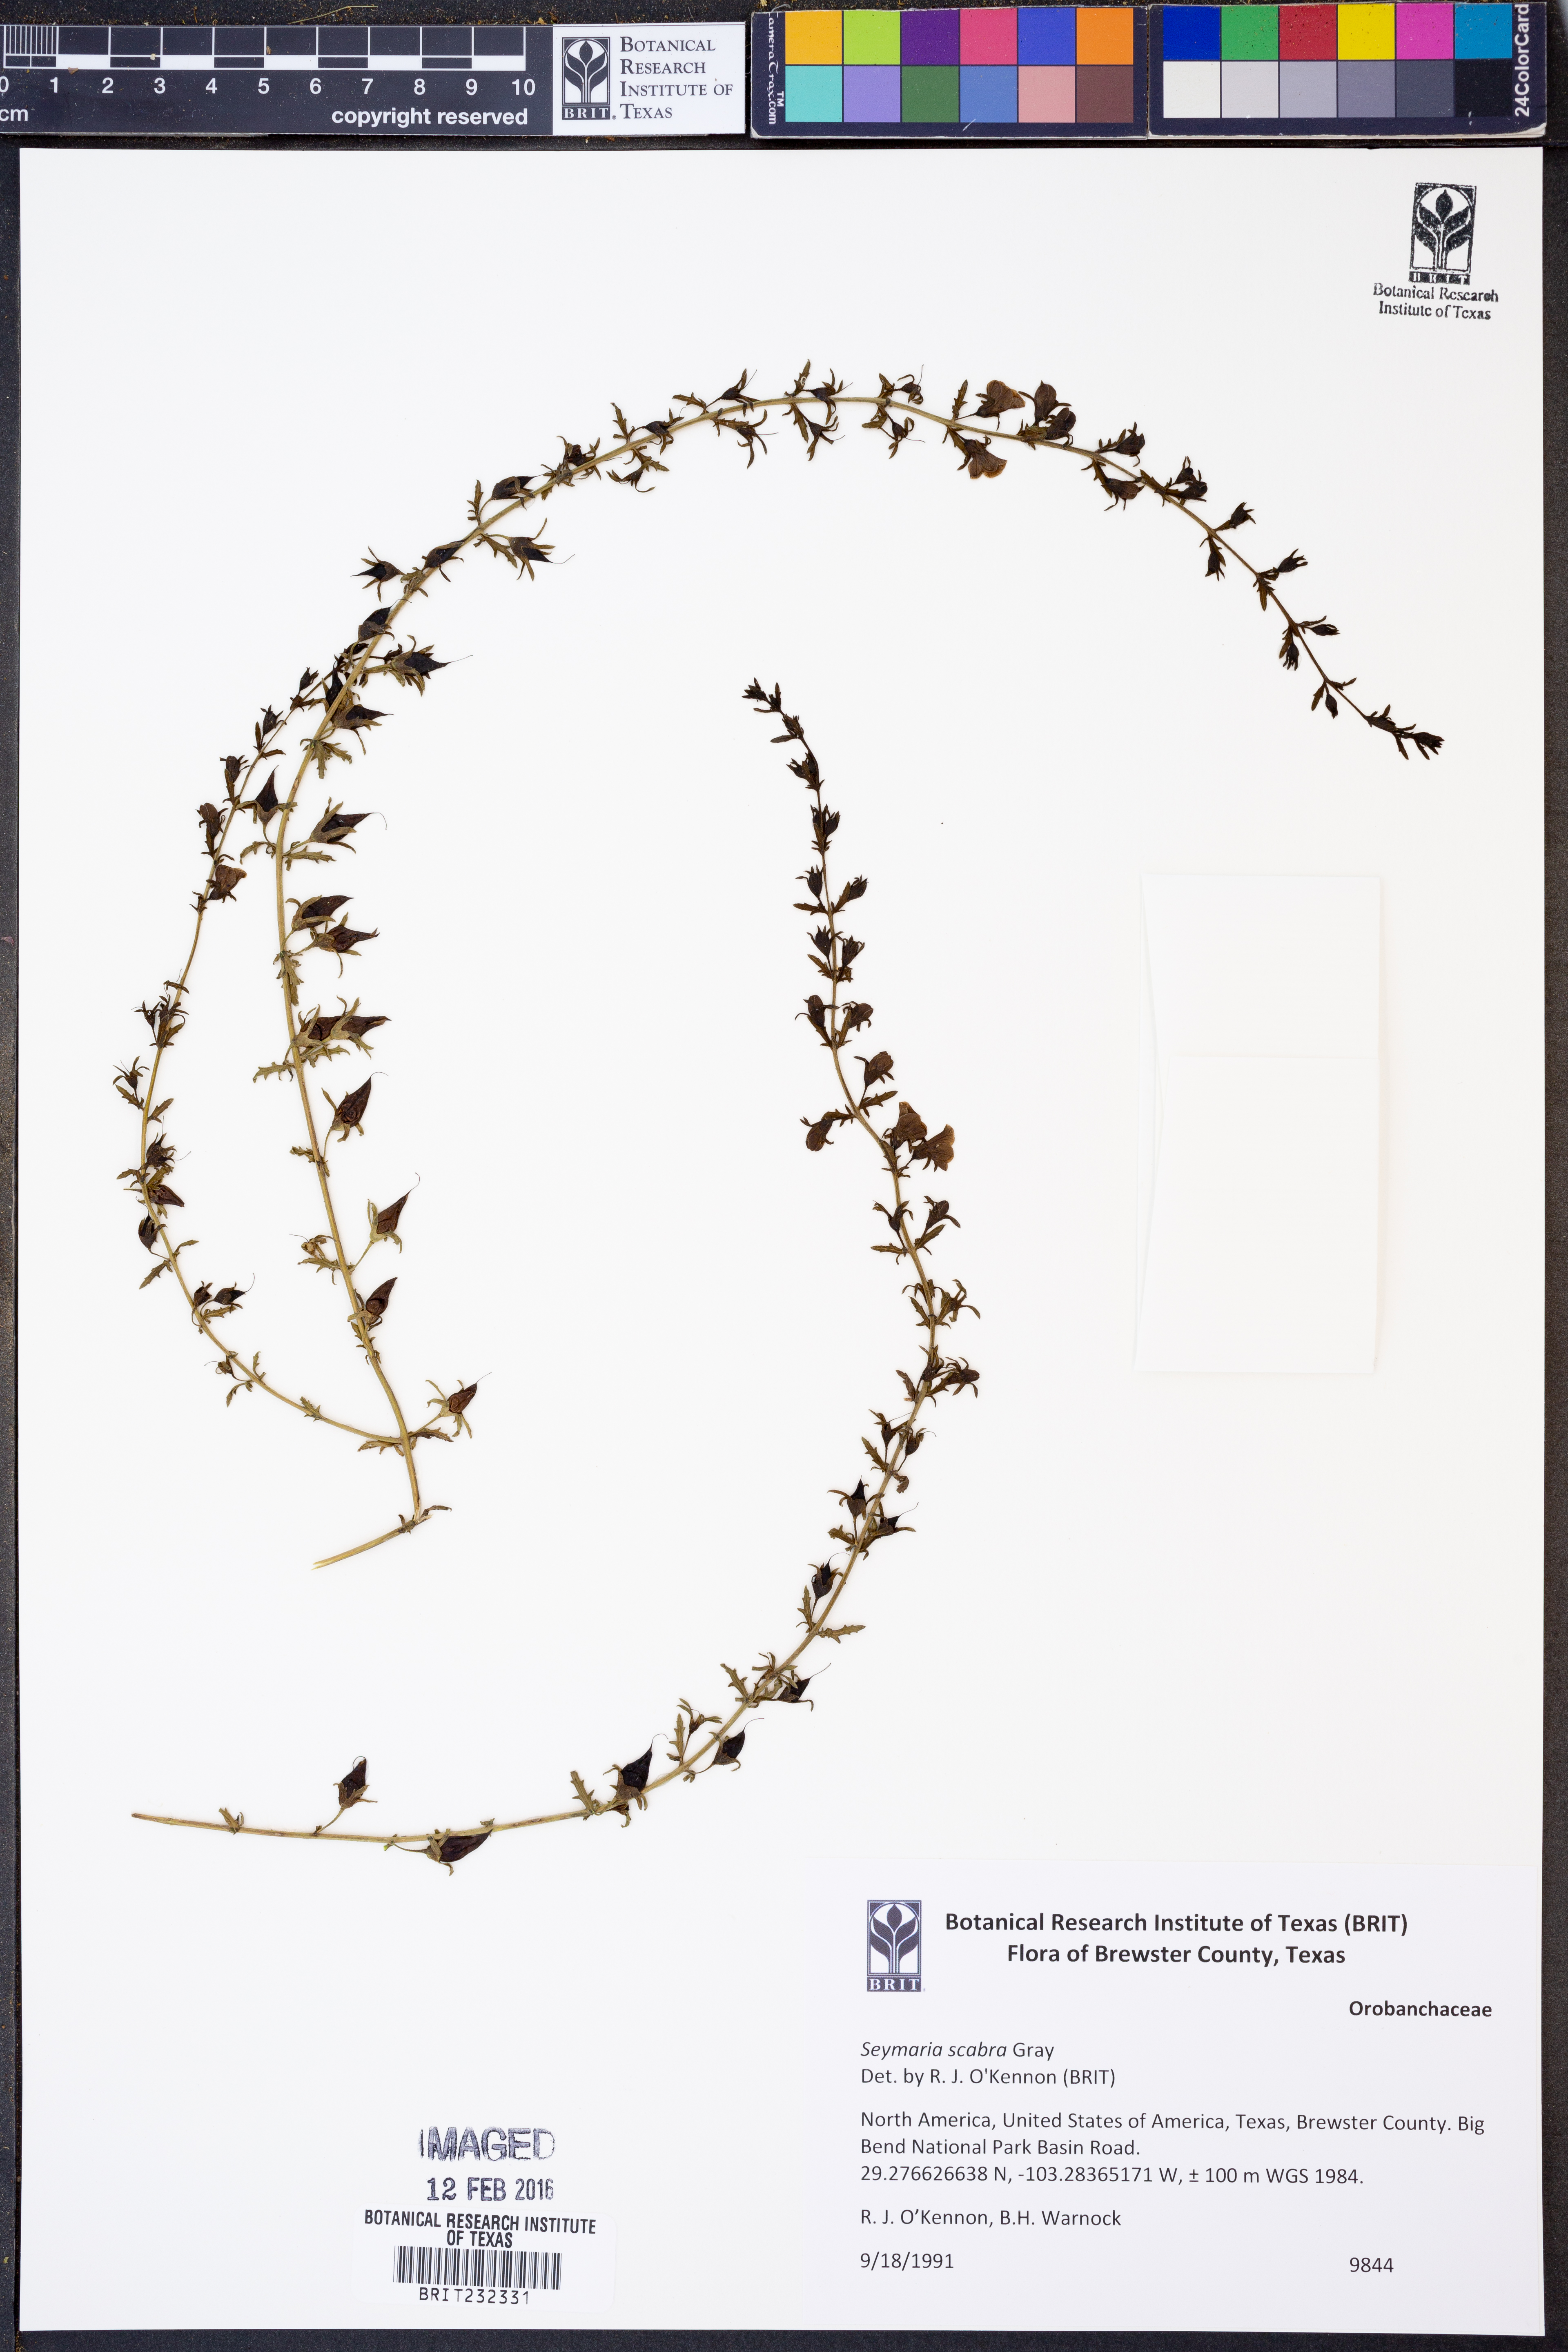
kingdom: Plantae
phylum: Tracheophyta
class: Magnoliopsida
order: Lamiales
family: Orobanchaceae
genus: Seymeria
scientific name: Seymeria scabra
